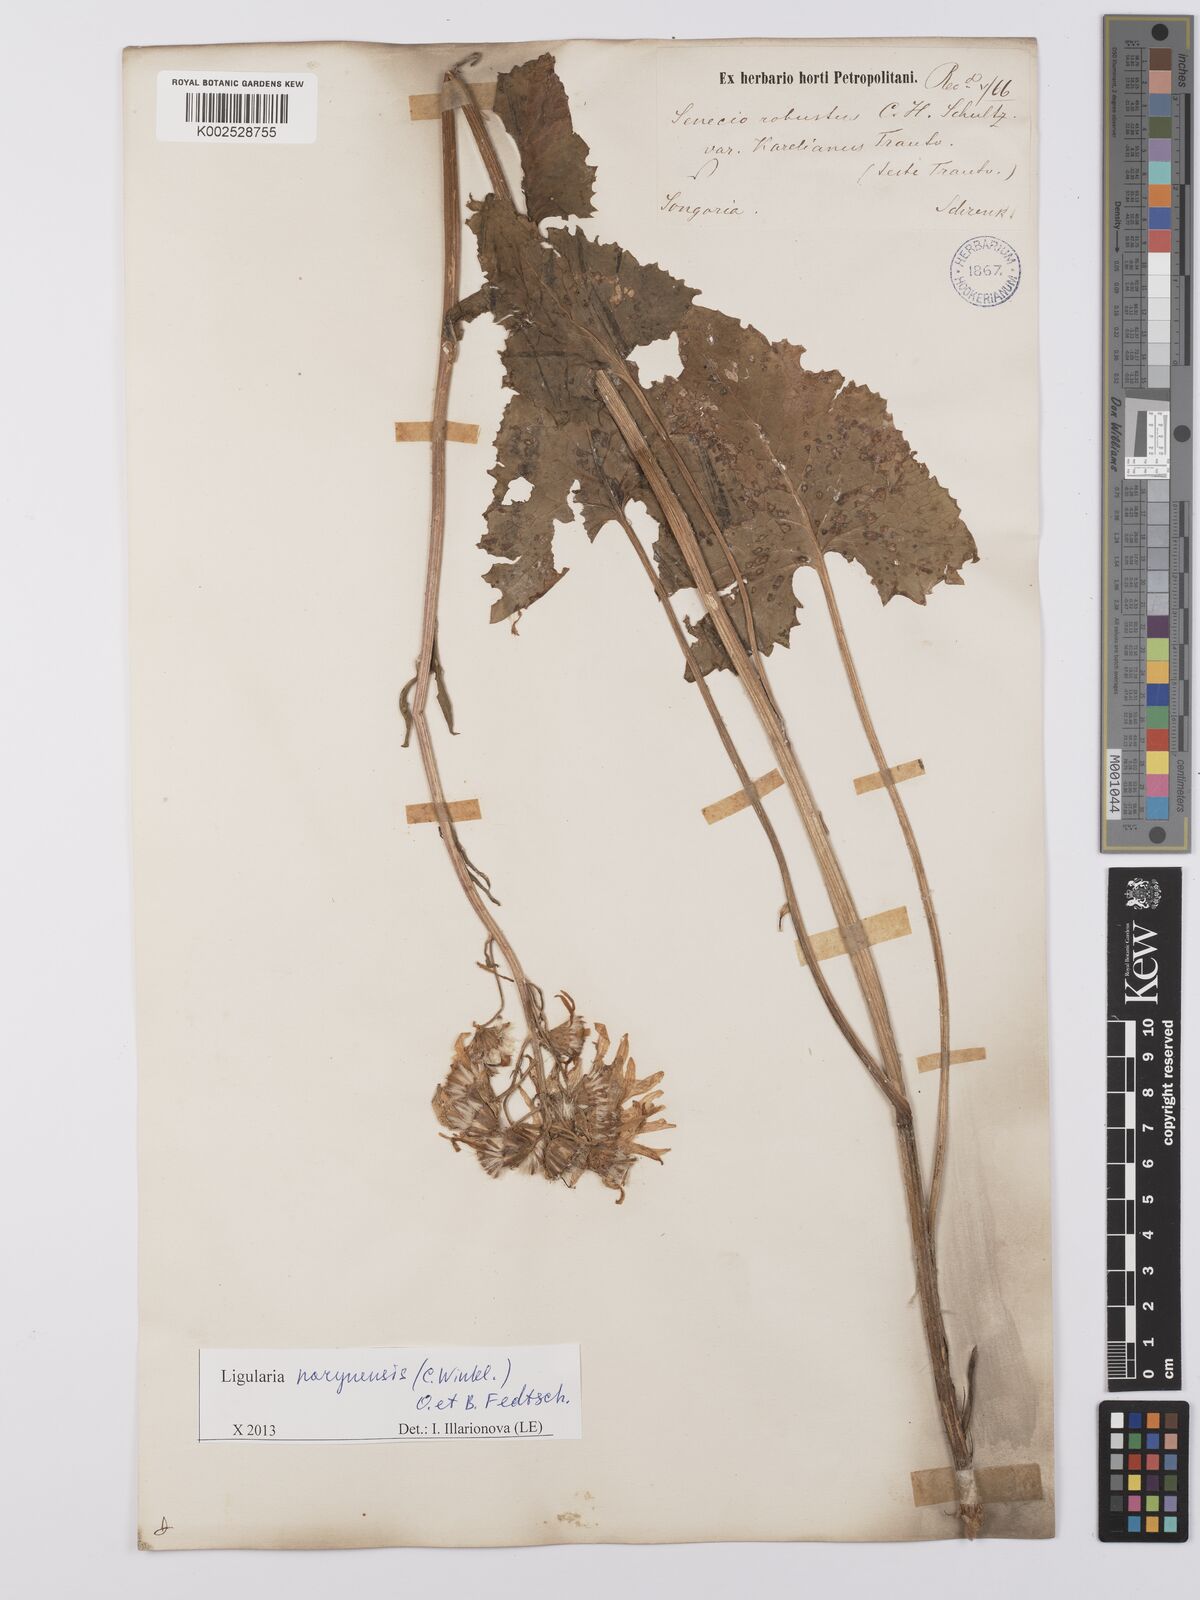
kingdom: Plantae
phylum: Tracheophyta
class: Magnoliopsida
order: Asterales
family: Asteraceae
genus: Vickifunkia
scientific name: Vickifunkia narynensis
